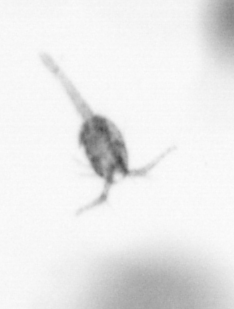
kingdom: Animalia
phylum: Arthropoda
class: Copepoda
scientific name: Copepoda
